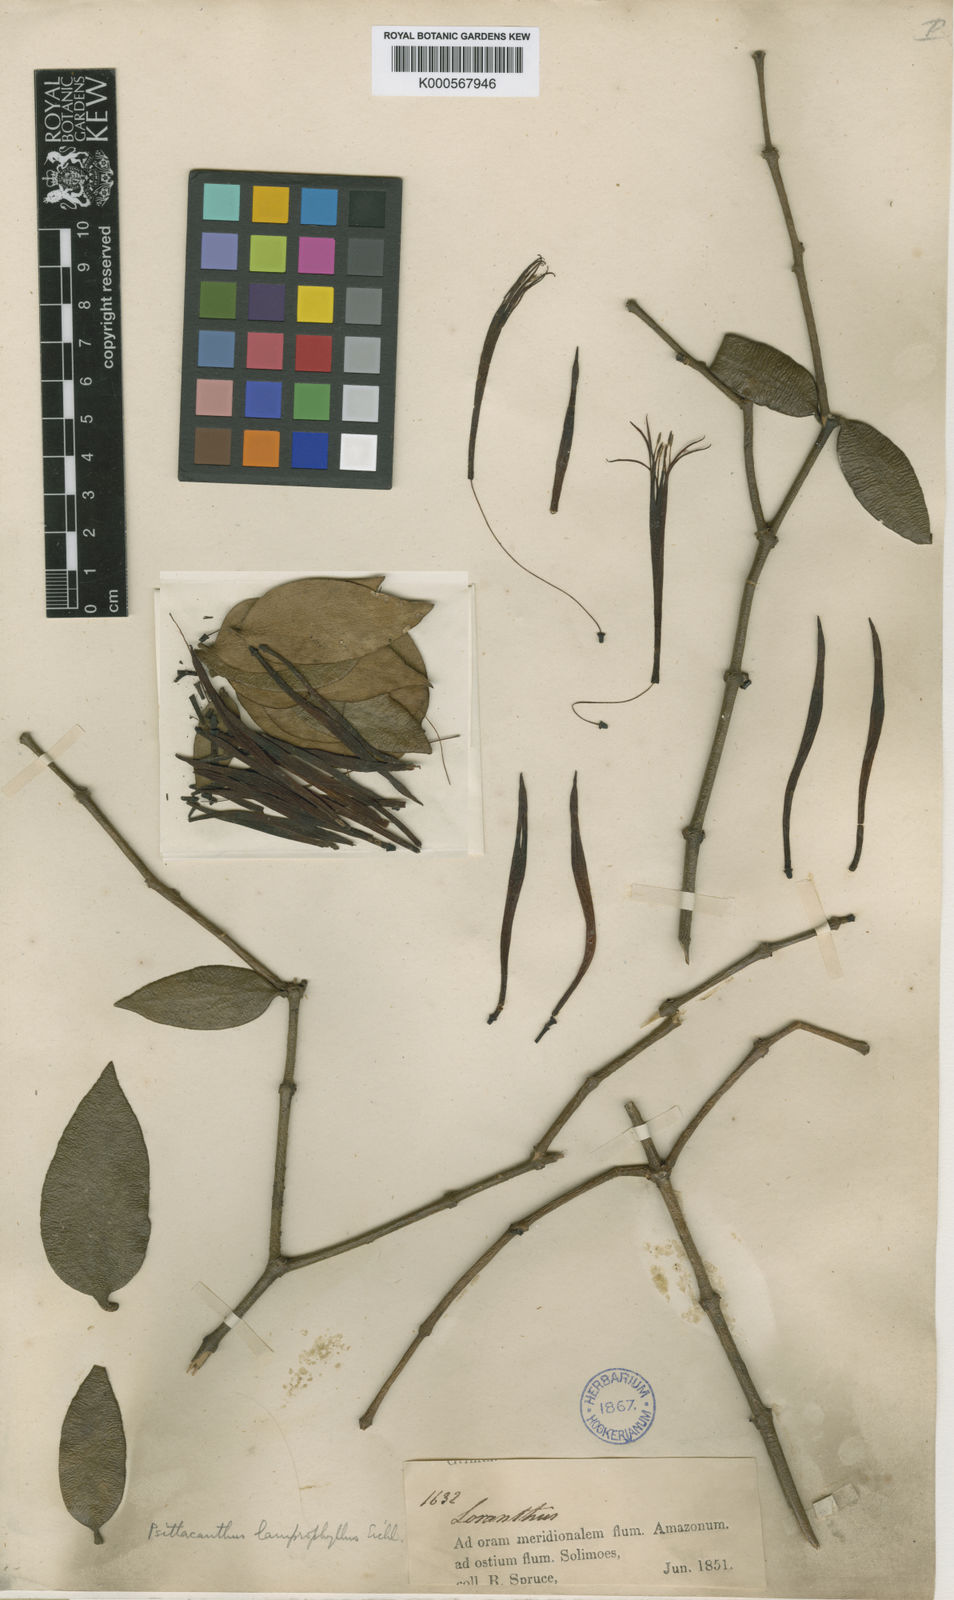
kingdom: Plantae
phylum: Tracheophyta
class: Magnoliopsida
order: Santalales
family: Loranthaceae
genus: Psittacanthus
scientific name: Psittacanthus lamprophyllus
